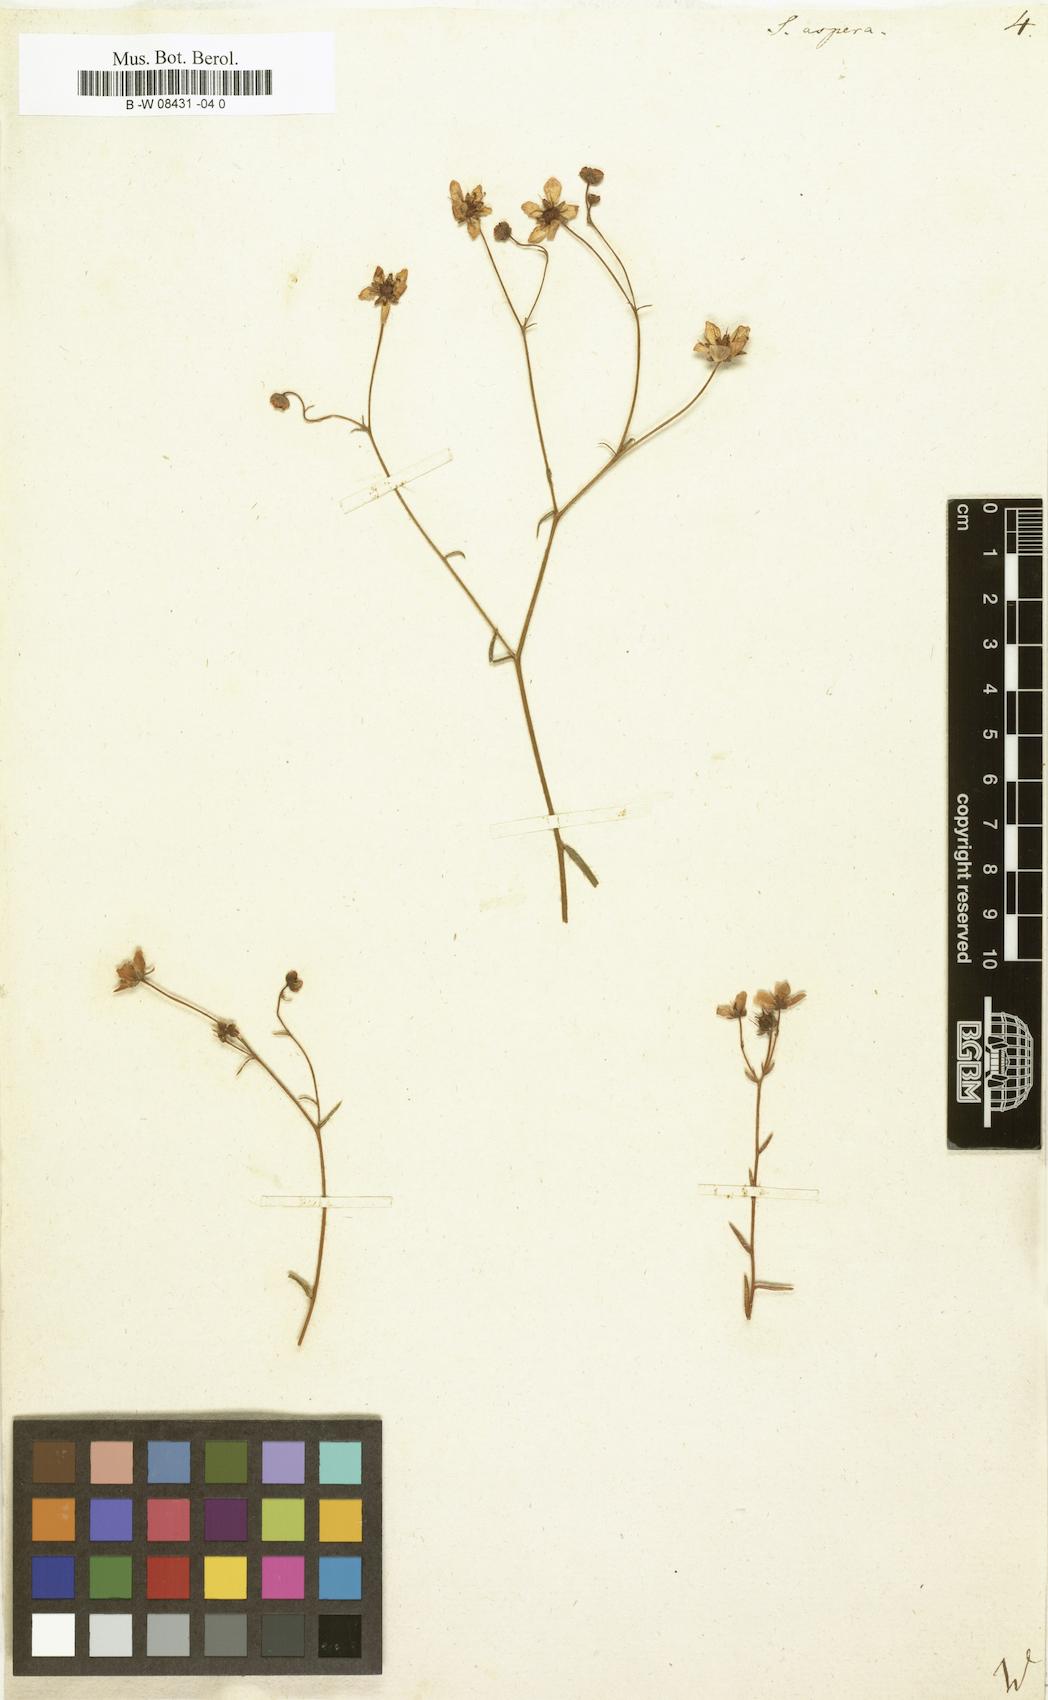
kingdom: Plantae
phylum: Tracheophyta
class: Magnoliopsida
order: Saxifragales
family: Saxifragaceae
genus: Saxifraga
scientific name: Saxifraga aspera
